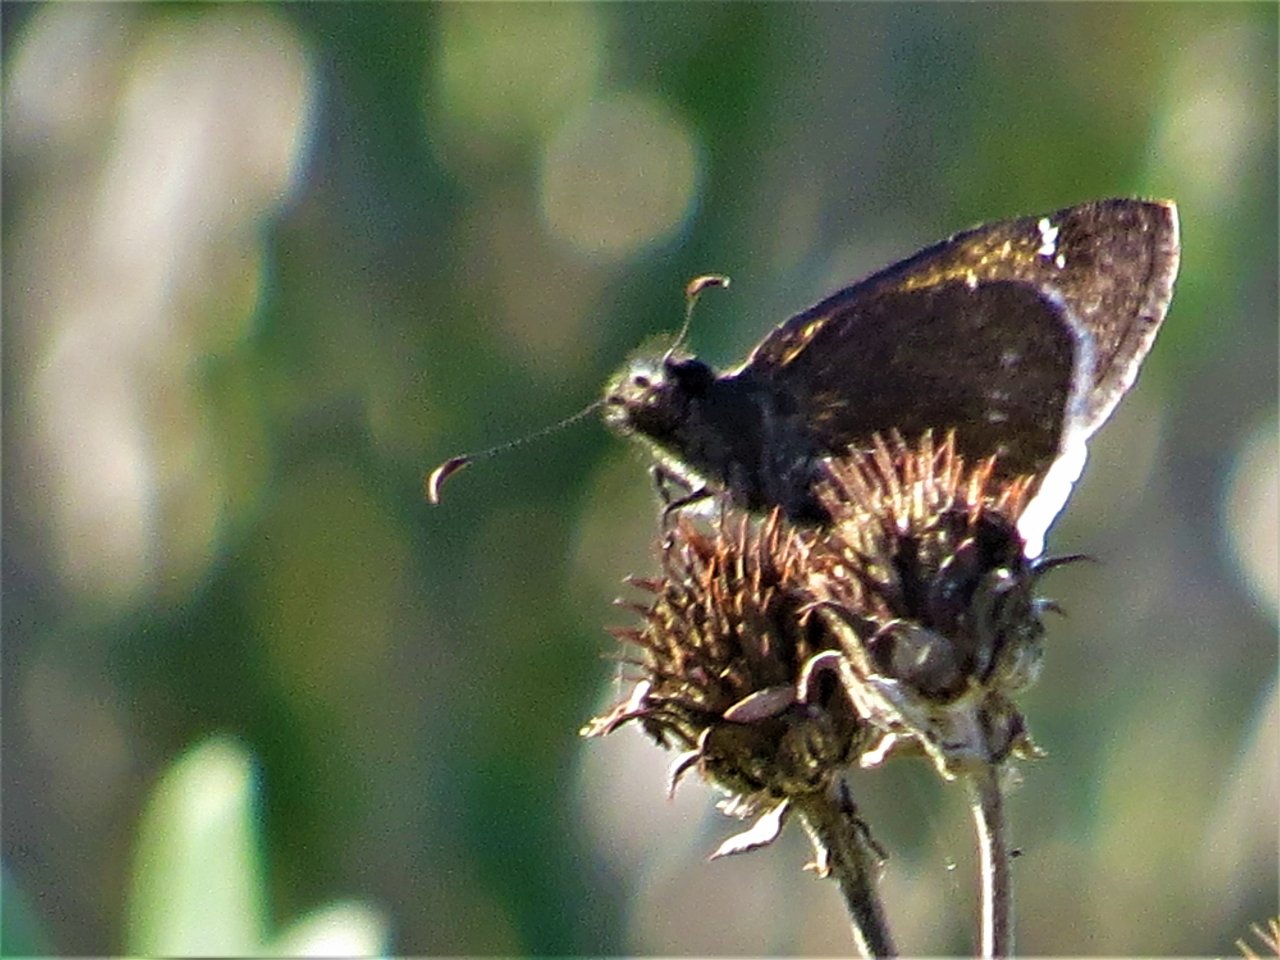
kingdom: Animalia
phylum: Arthropoda
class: Insecta
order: Lepidoptera
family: Hesperiidae
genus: Erynnis
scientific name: Erynnis tristis
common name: Mournful Duskywing
